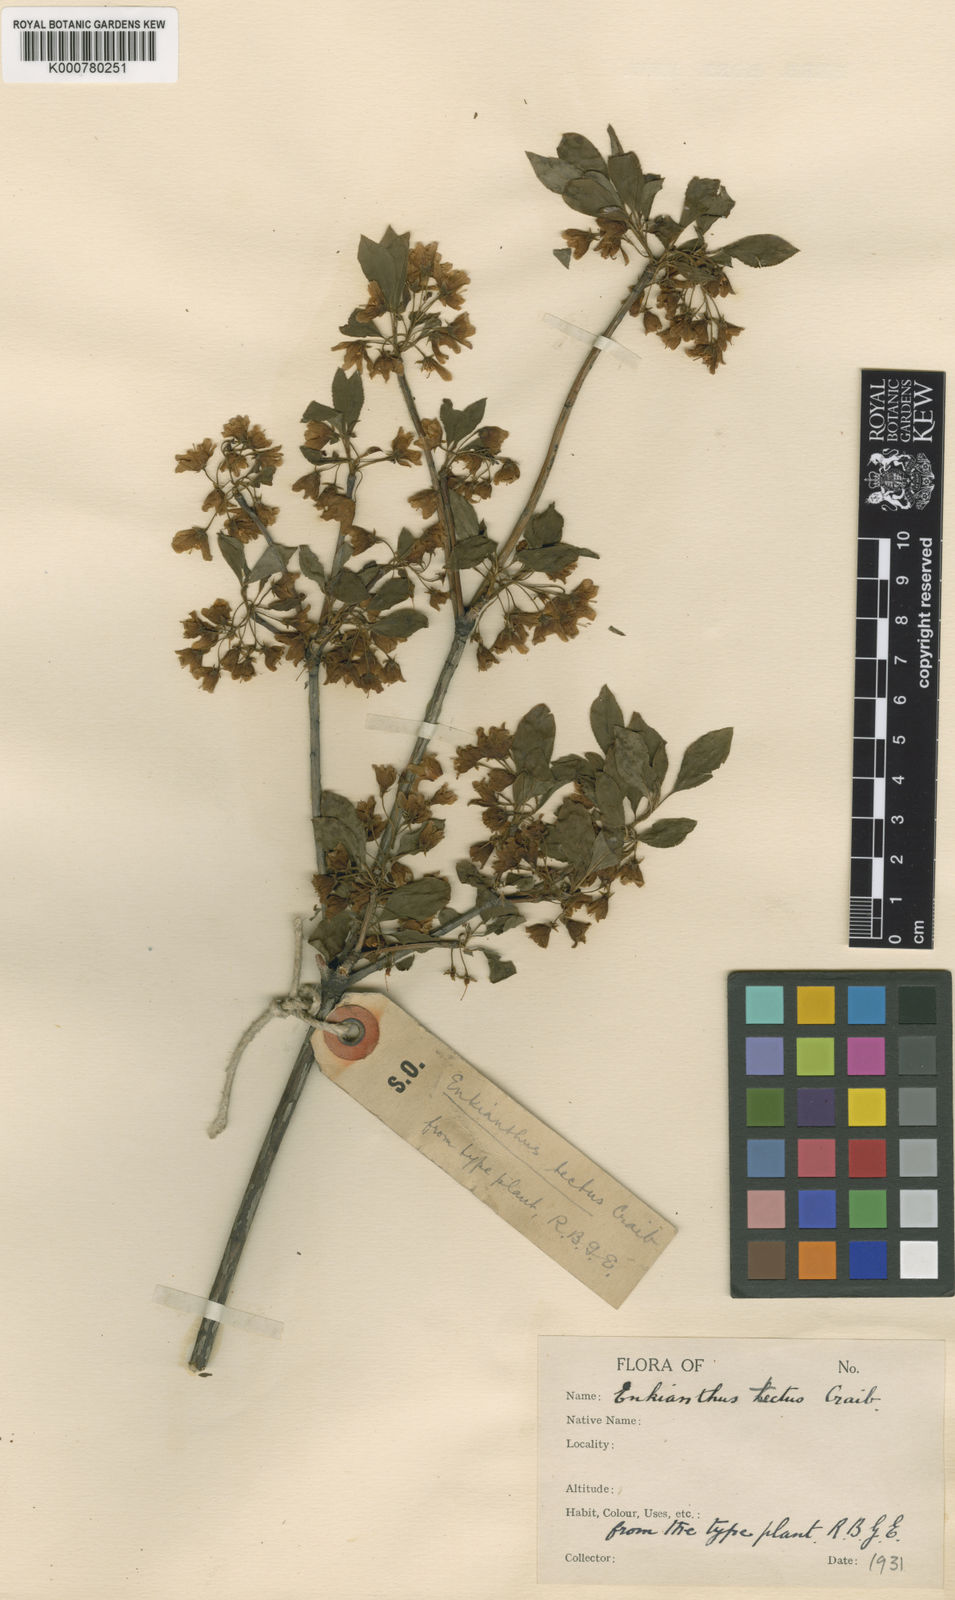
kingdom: Plantae
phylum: Tracheophyta
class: Magnoliopsida
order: Ericales
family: Ericaceae
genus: Enkianthus
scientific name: Enkianthus campanulatus
